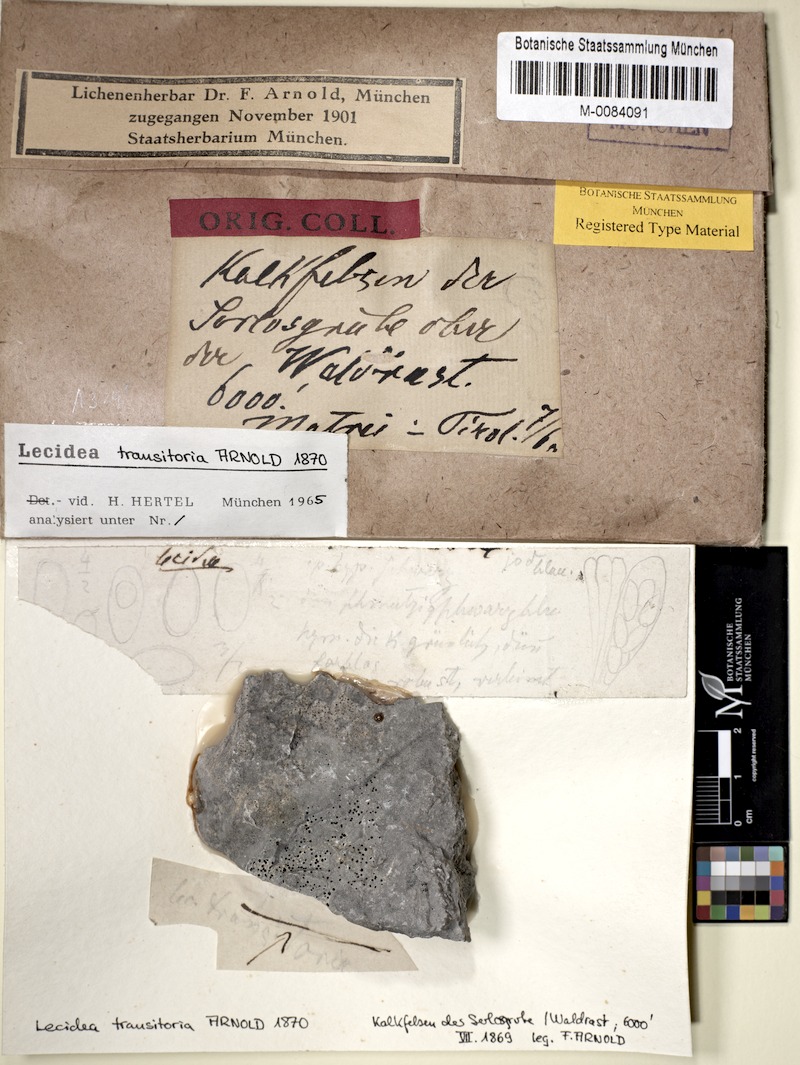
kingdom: Fungi
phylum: Ascomycota
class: Lecanoromycetes
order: Lecideales
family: Lecideaceae
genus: Melanolecia
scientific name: Melanolecia transitoria
